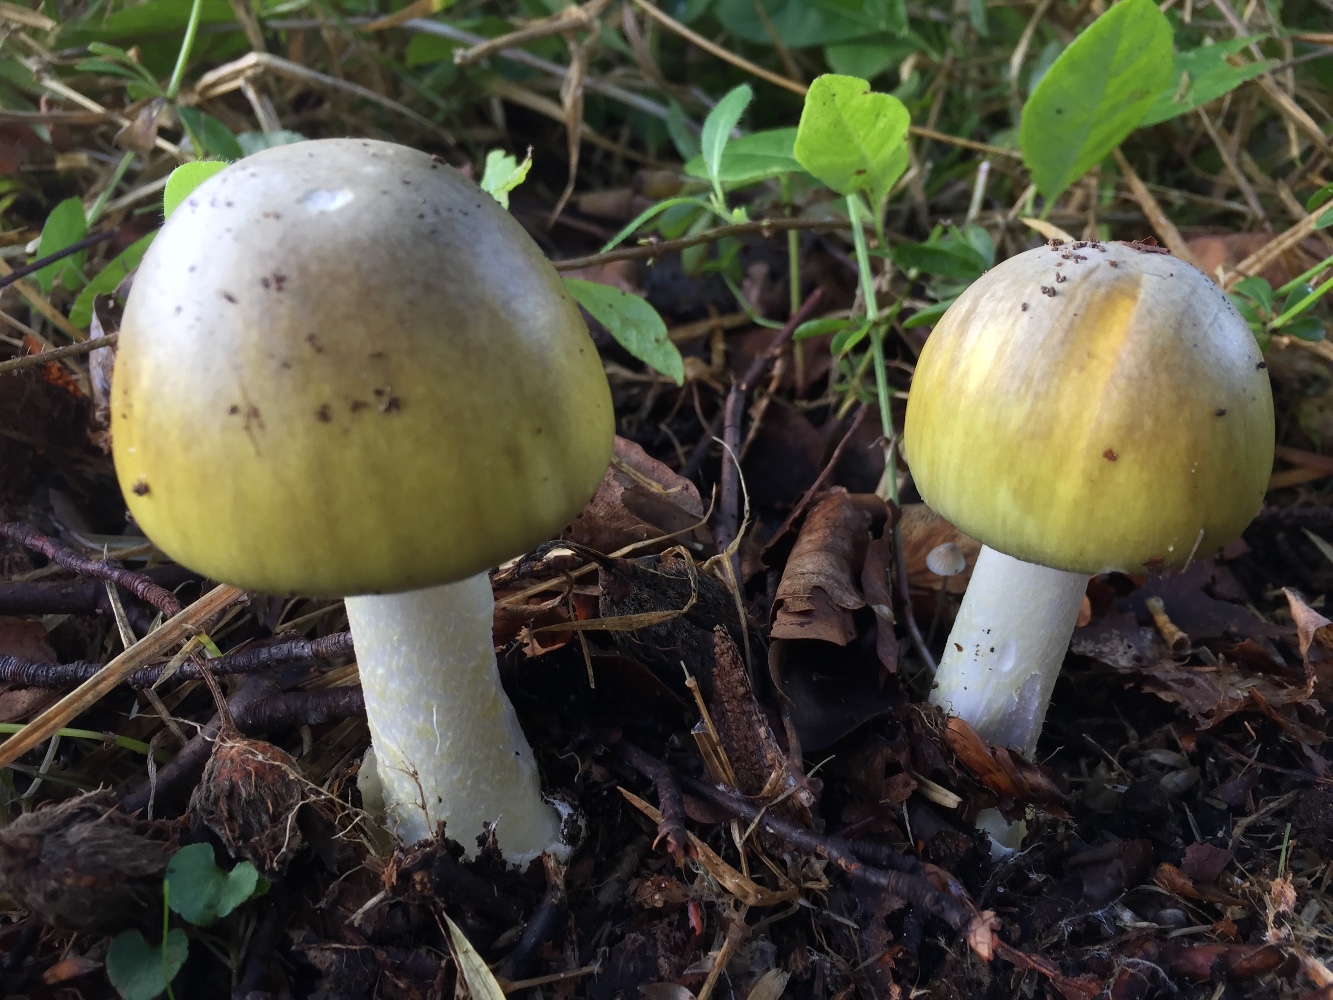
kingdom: Fungi
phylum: Basidiomycota
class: Agaricomycetes
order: Agaricales
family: Amanitaceae
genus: Amanita
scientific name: Amanita phalloides
